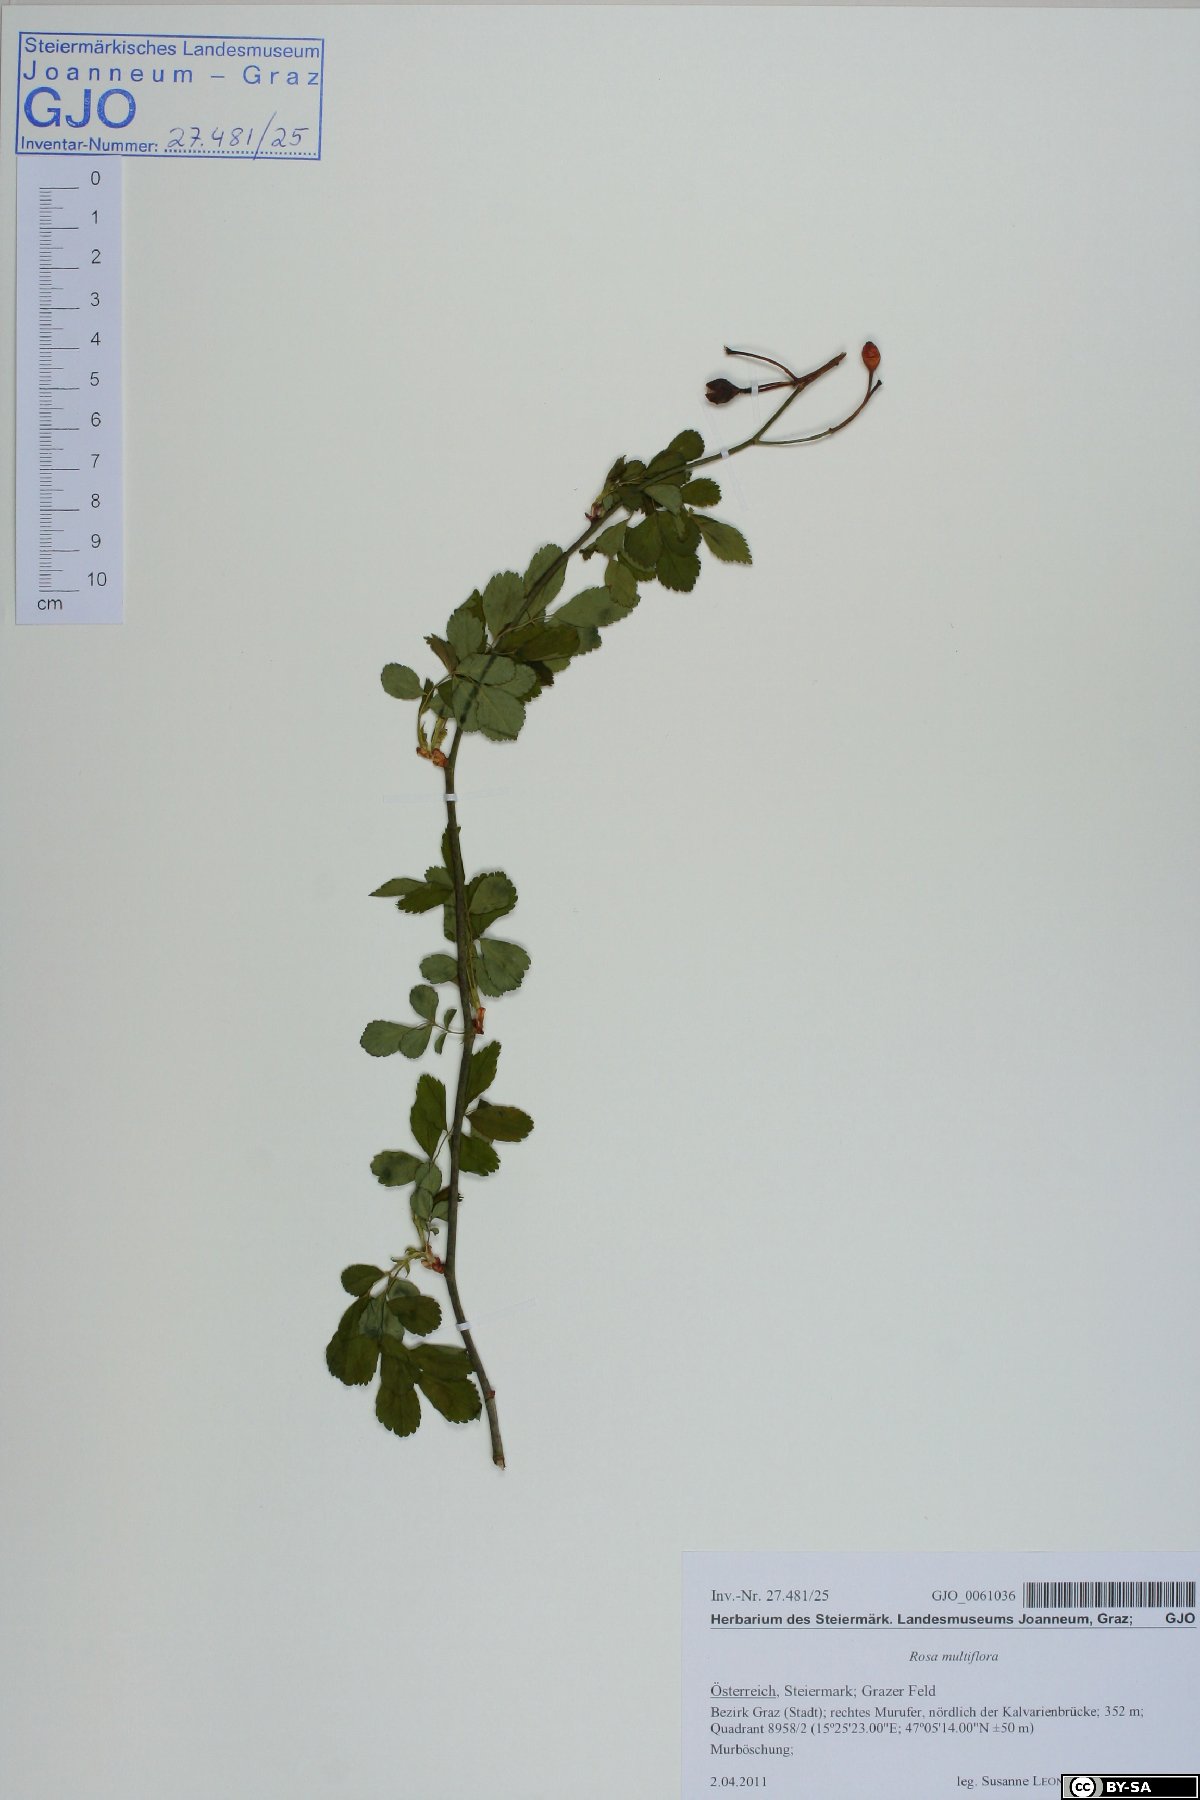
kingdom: Plantae
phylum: Tracheophyta
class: Magnoliopsida
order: Rosales
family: Rosaceae
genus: Rosa
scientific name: Rosa multiflora
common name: Multiflora rose
